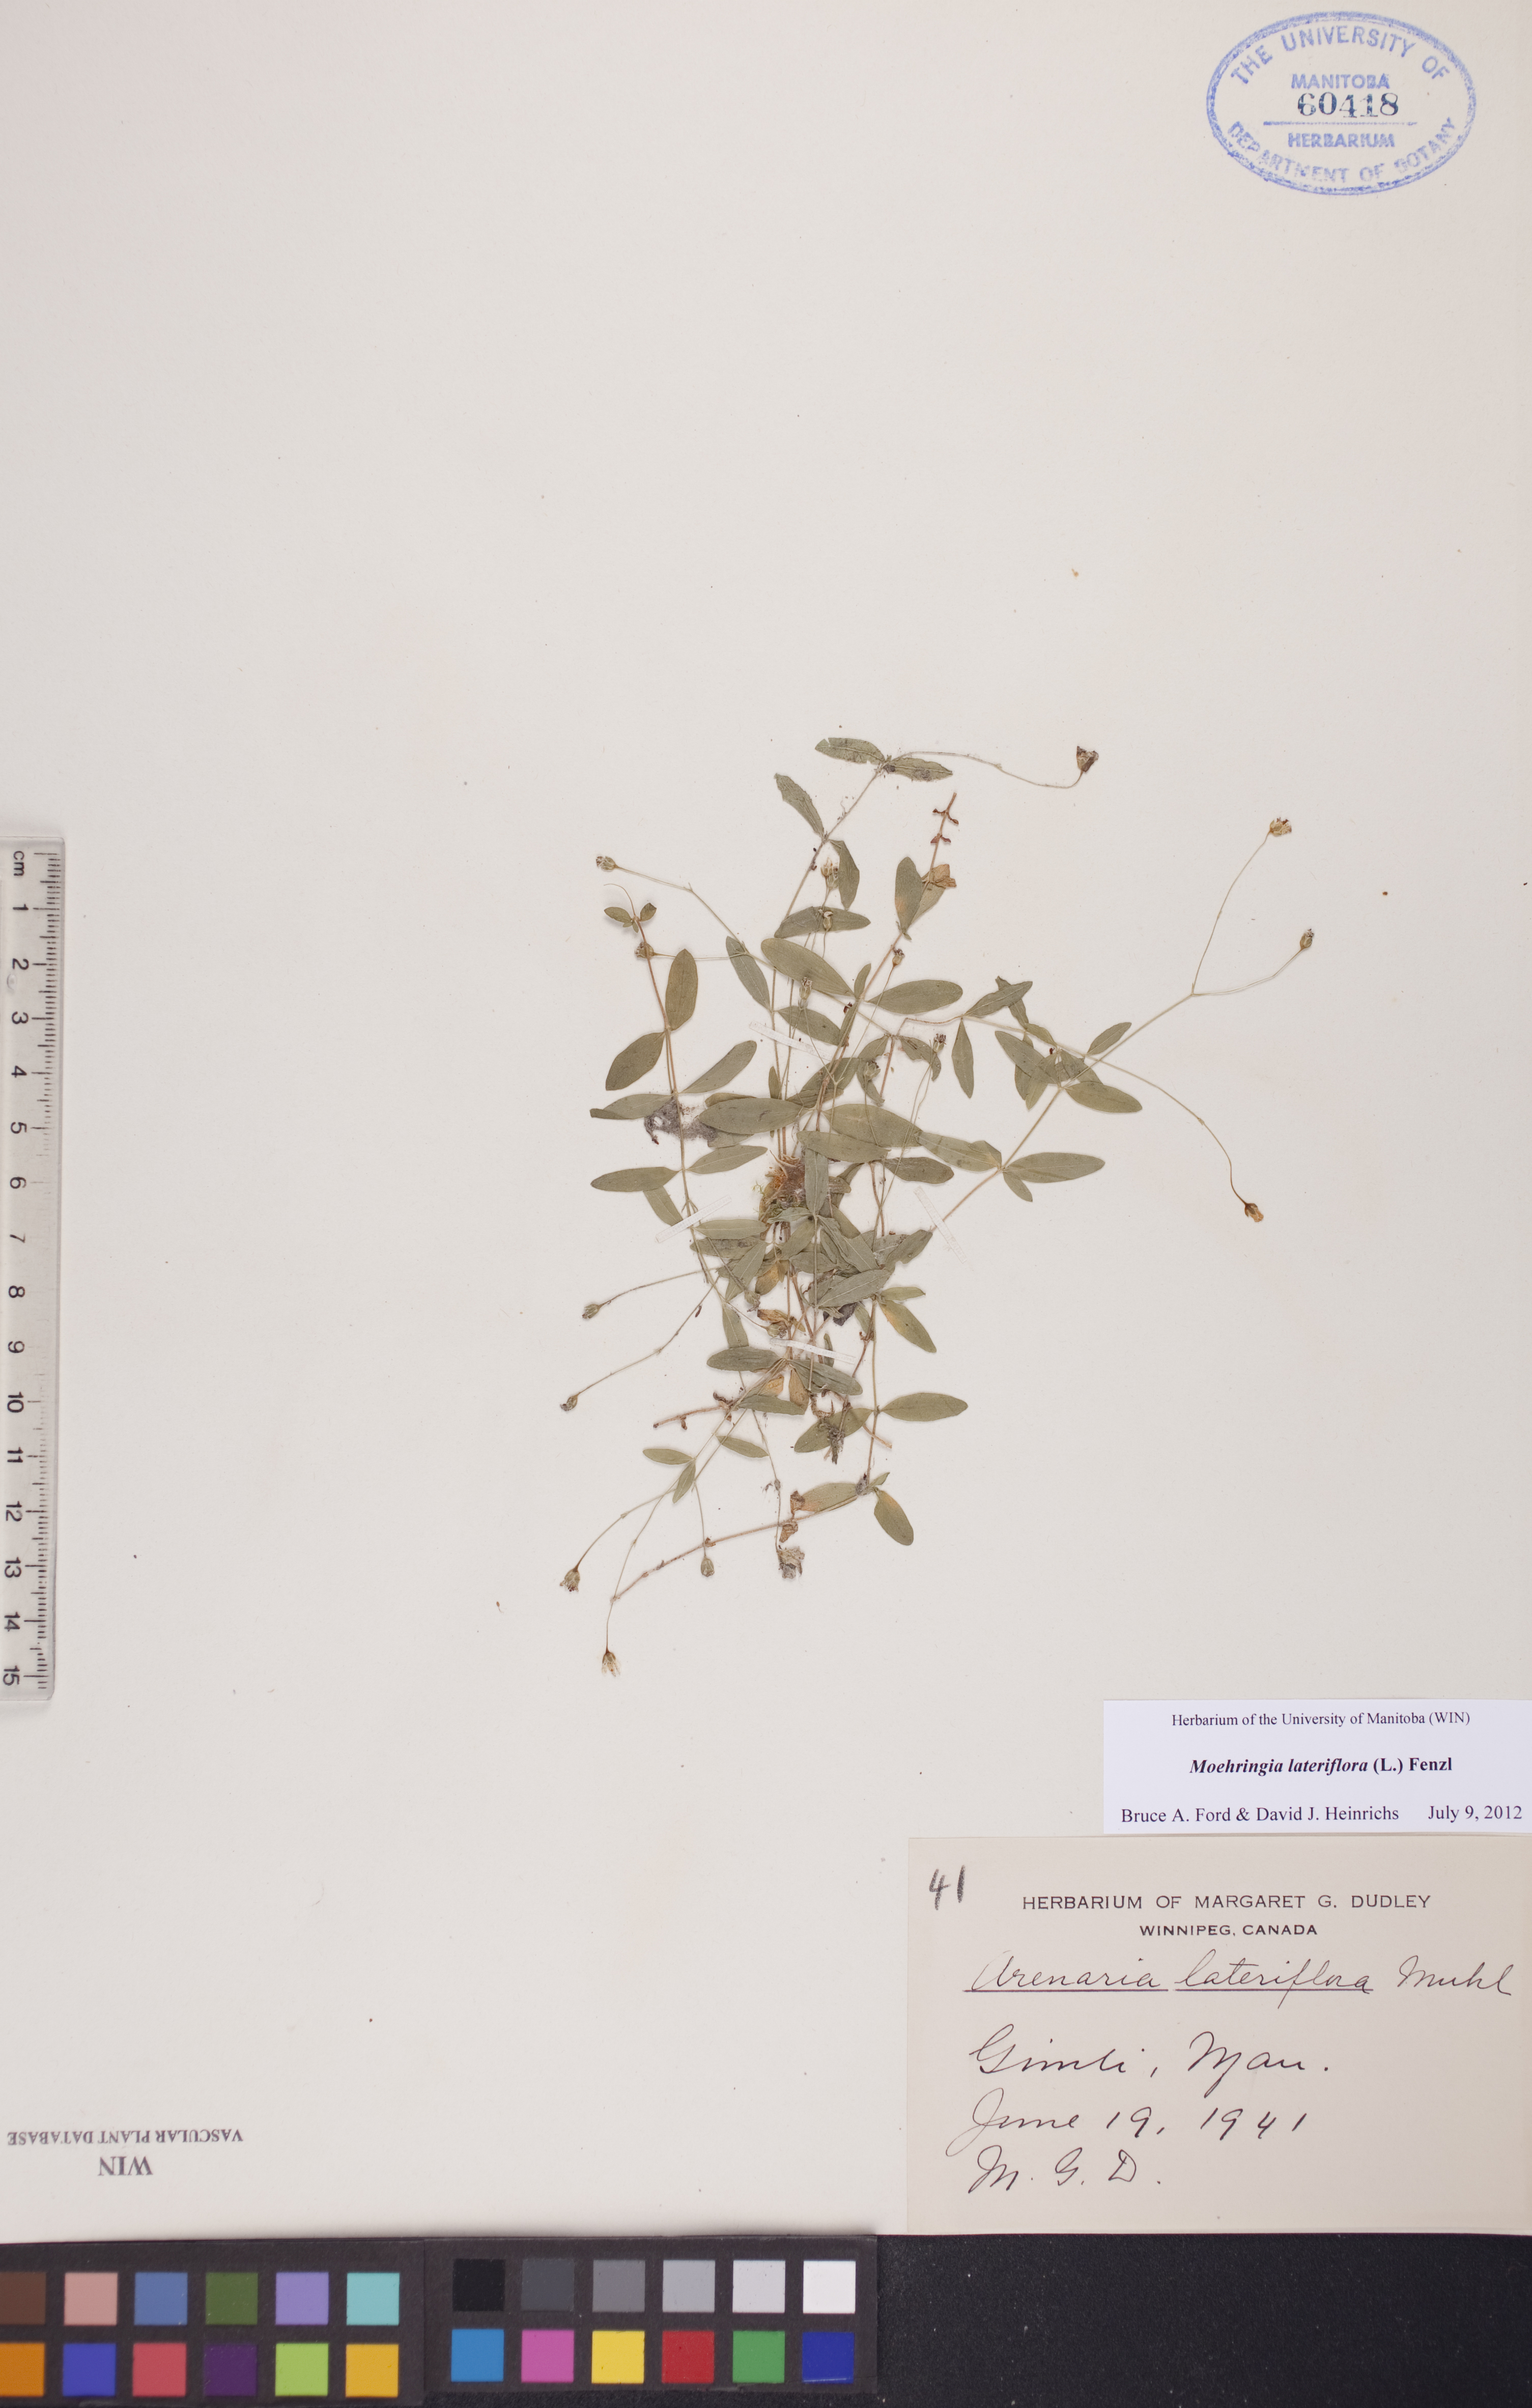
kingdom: Plantae
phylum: Tracheophyta
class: Magnoliopsida
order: Caryophyllales
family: Caryophyllaceae
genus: Moehringia
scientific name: Moehringia lateriflora
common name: Blunt-leaved sandwort
